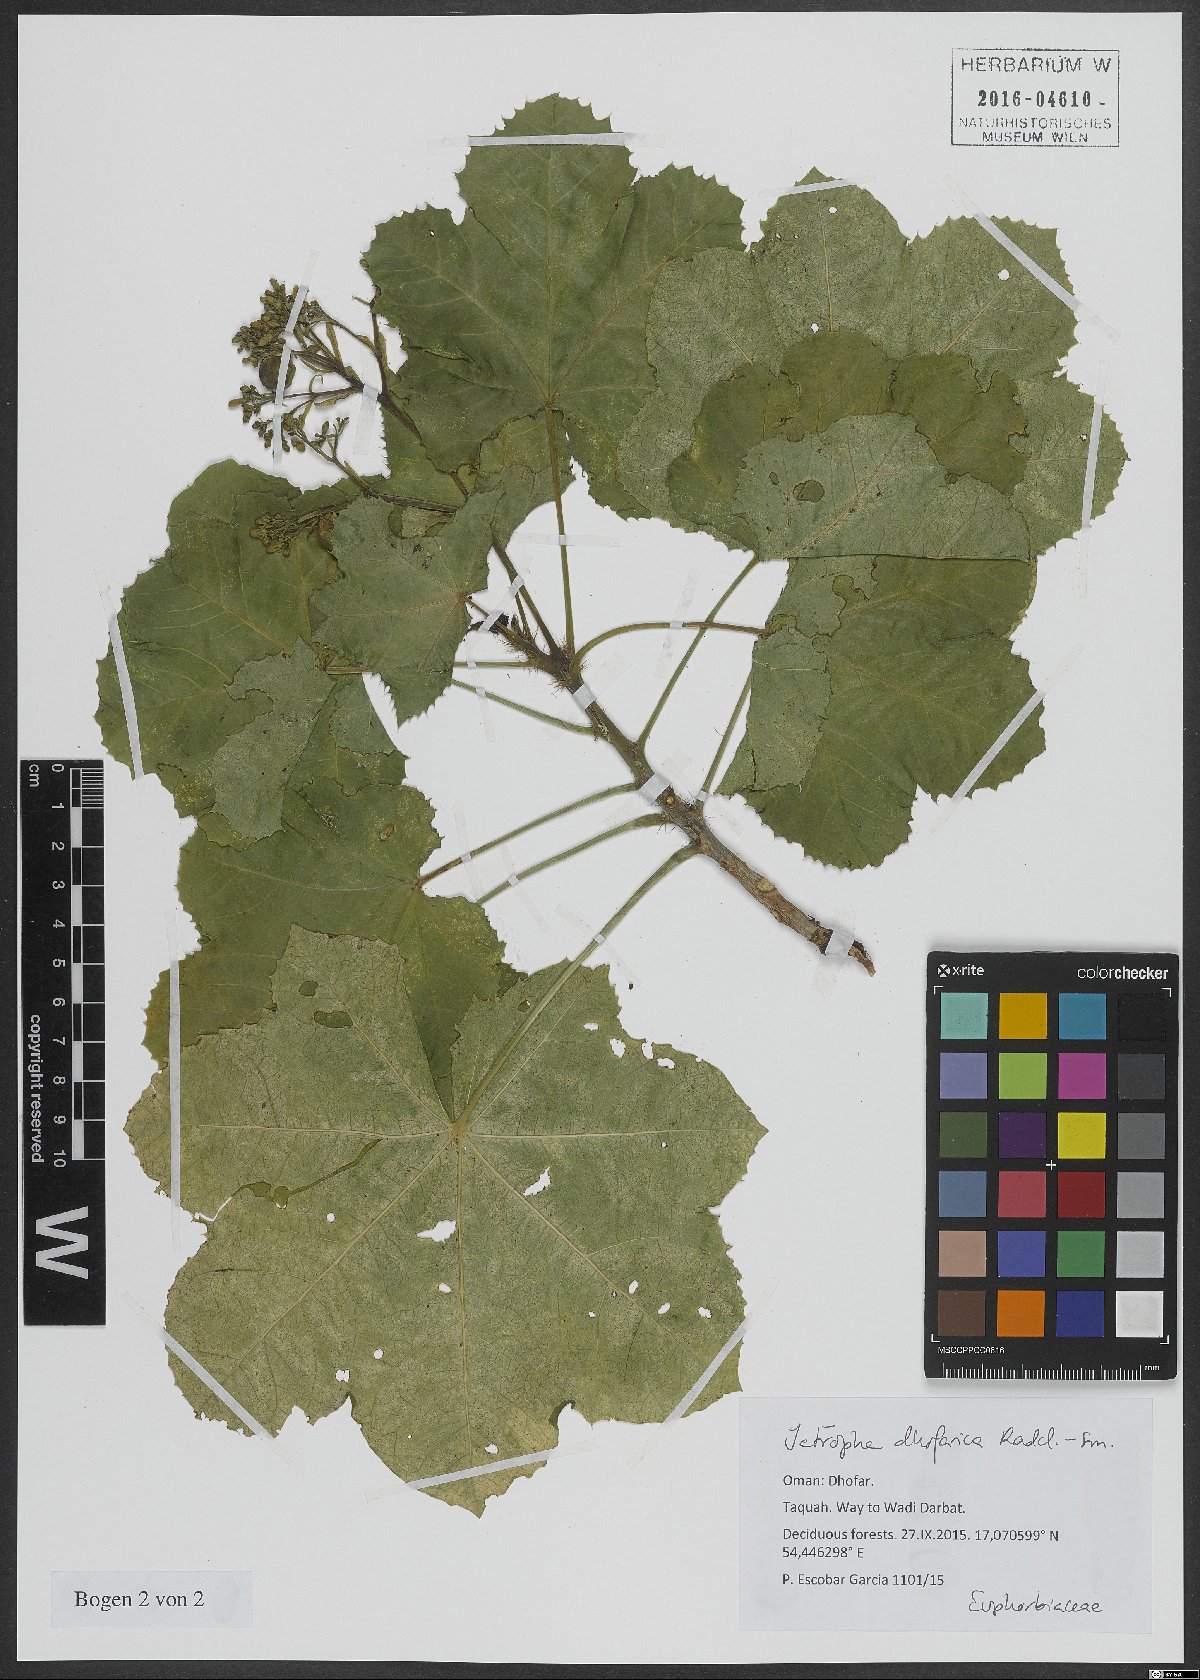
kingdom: Plantae
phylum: Tracheophyta
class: Magnoliopsida
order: Malpighiales
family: Euphorbiaceae
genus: Jatropha
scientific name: Jatropha dhofarica
